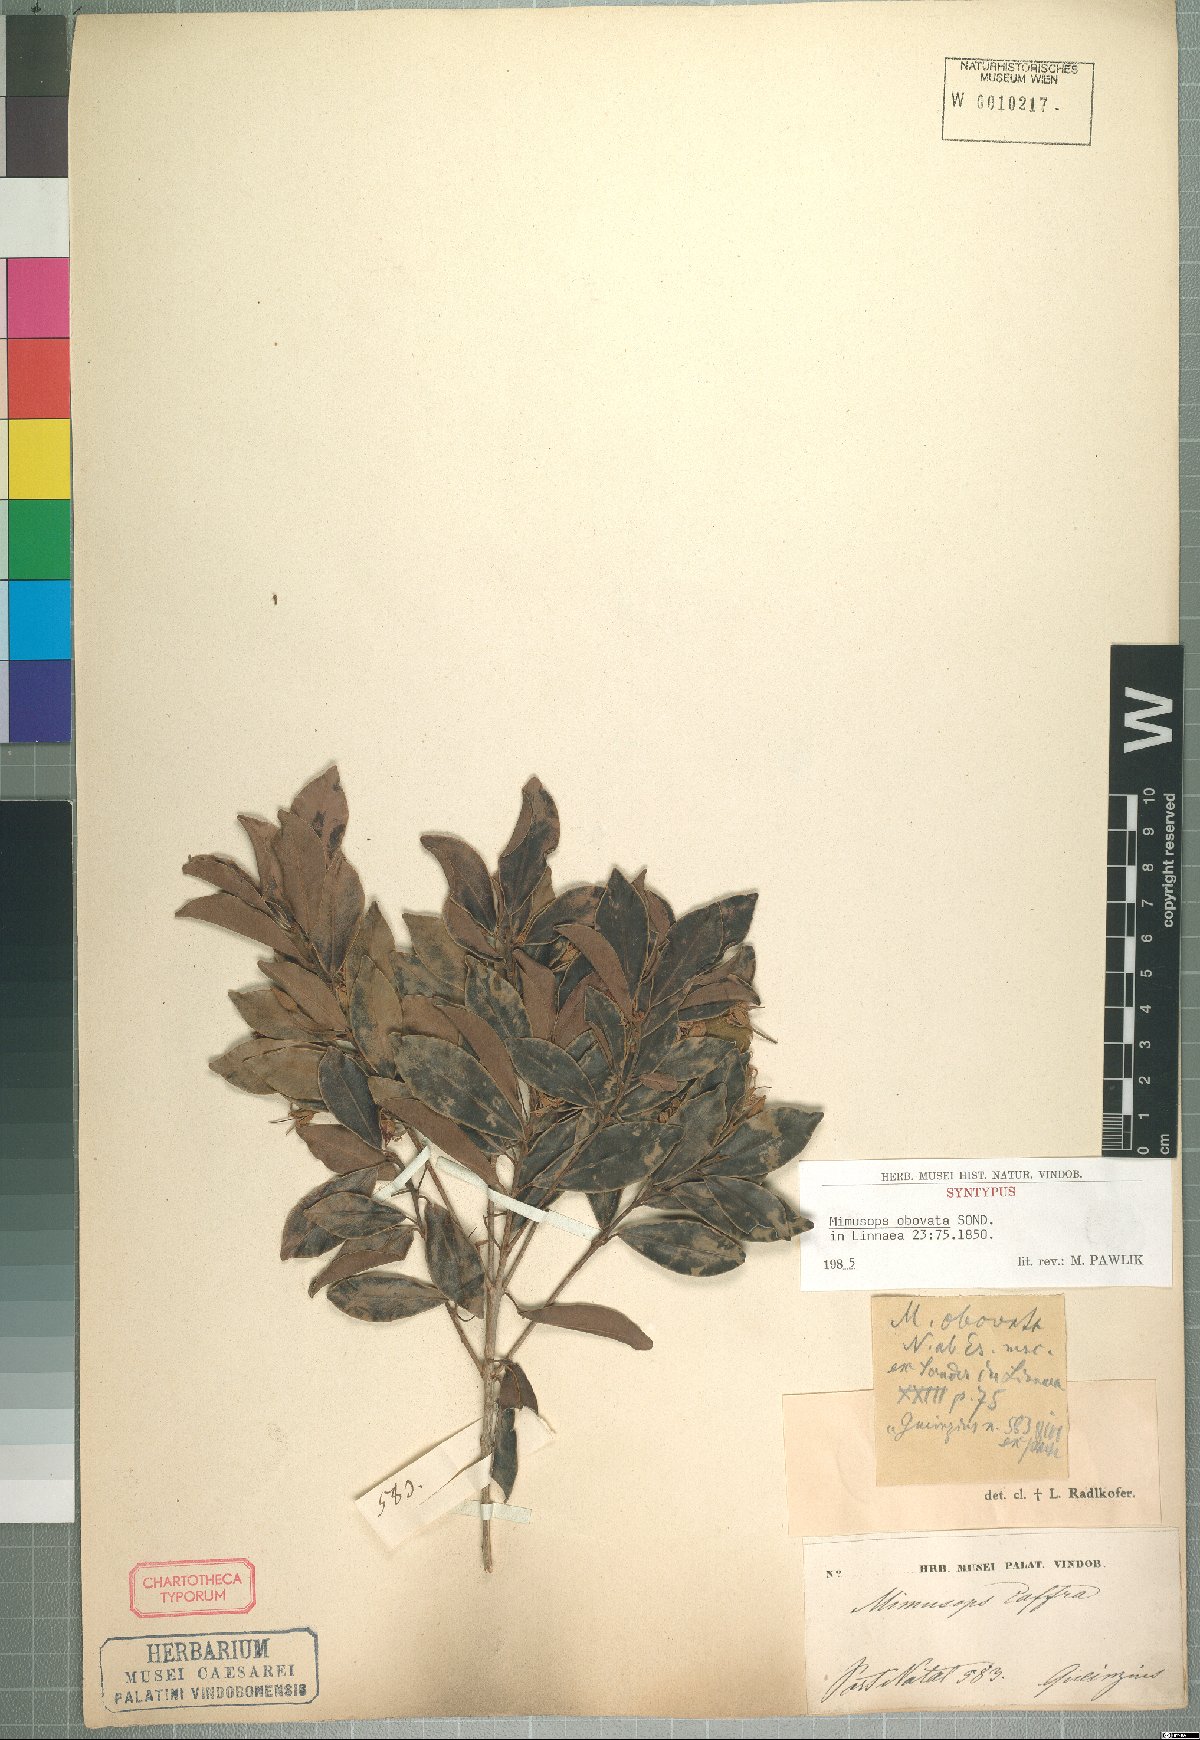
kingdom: Plantae
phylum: Tracheophyta
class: Magnoliopsida
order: Ericales
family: Sapotaceae
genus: Mimusops
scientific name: Mimusops obovata
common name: Red milkwood
